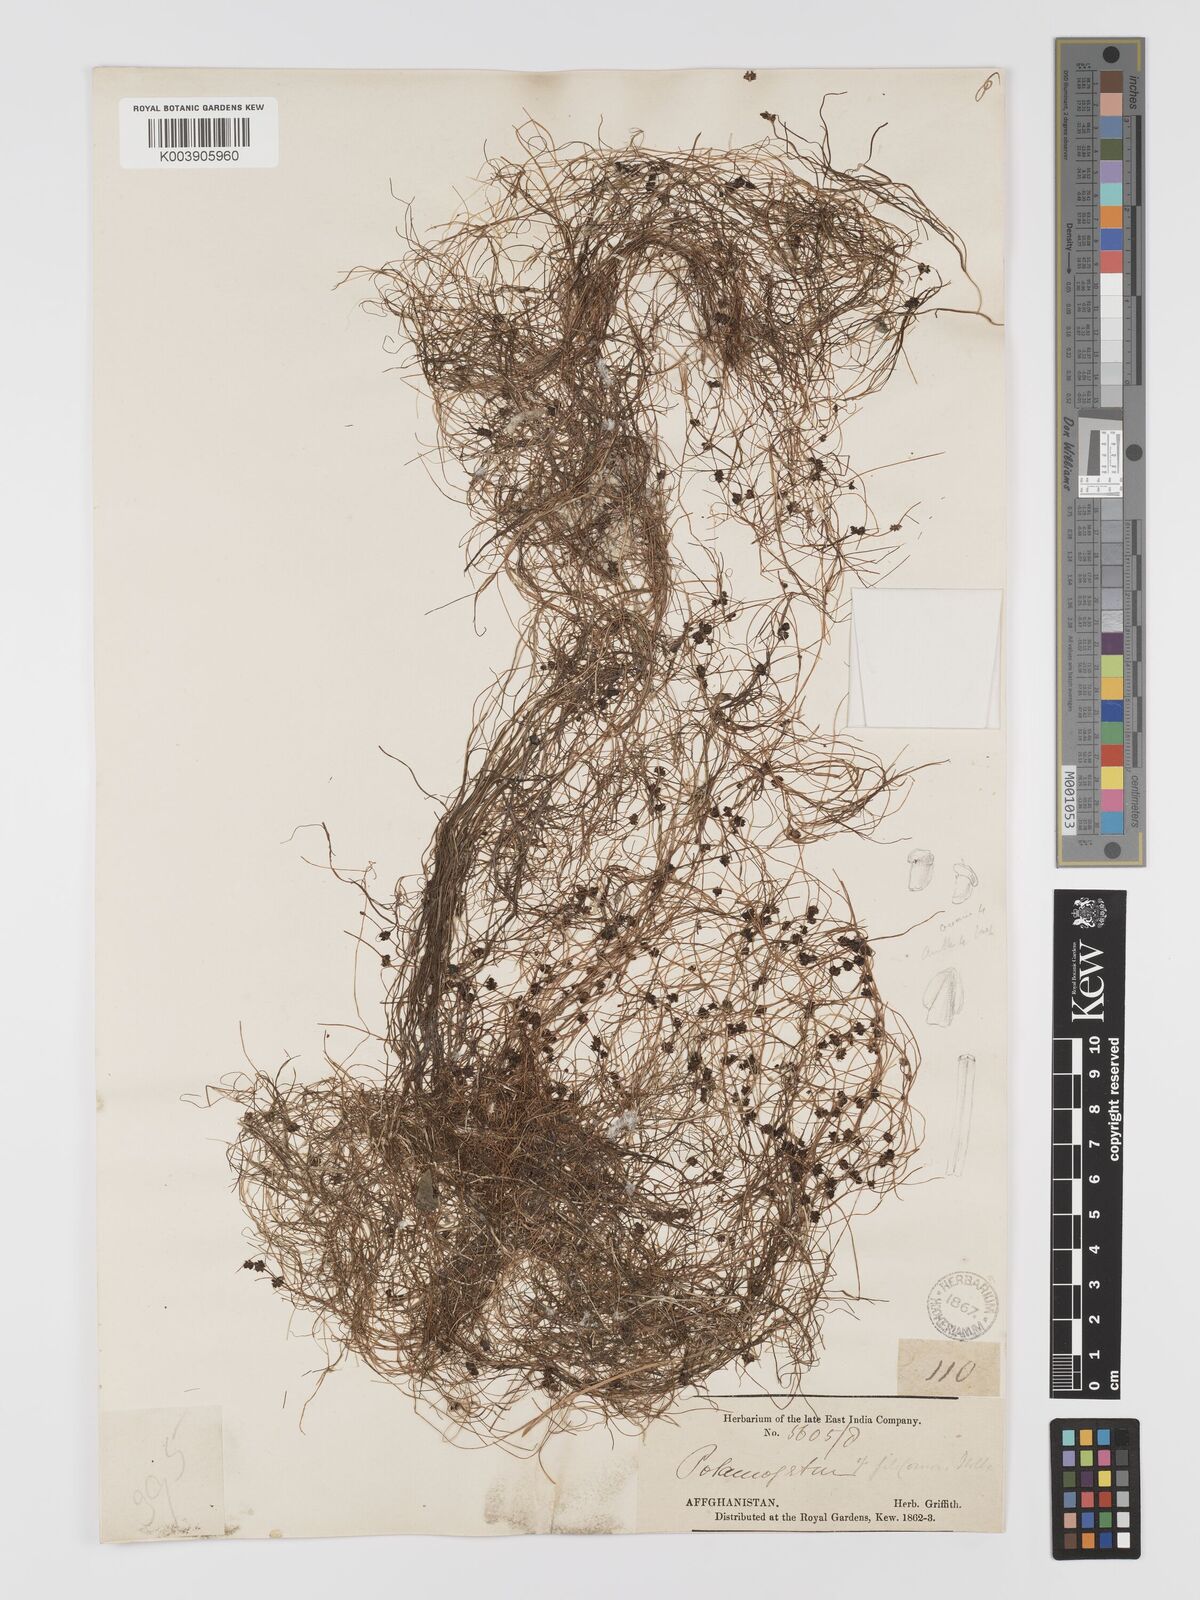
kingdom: Plantae
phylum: Tracheophyta
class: Liliopsida
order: Alismatales
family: Potamogetonaceae
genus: Potamogeton
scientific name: Potamogeton filiformis
